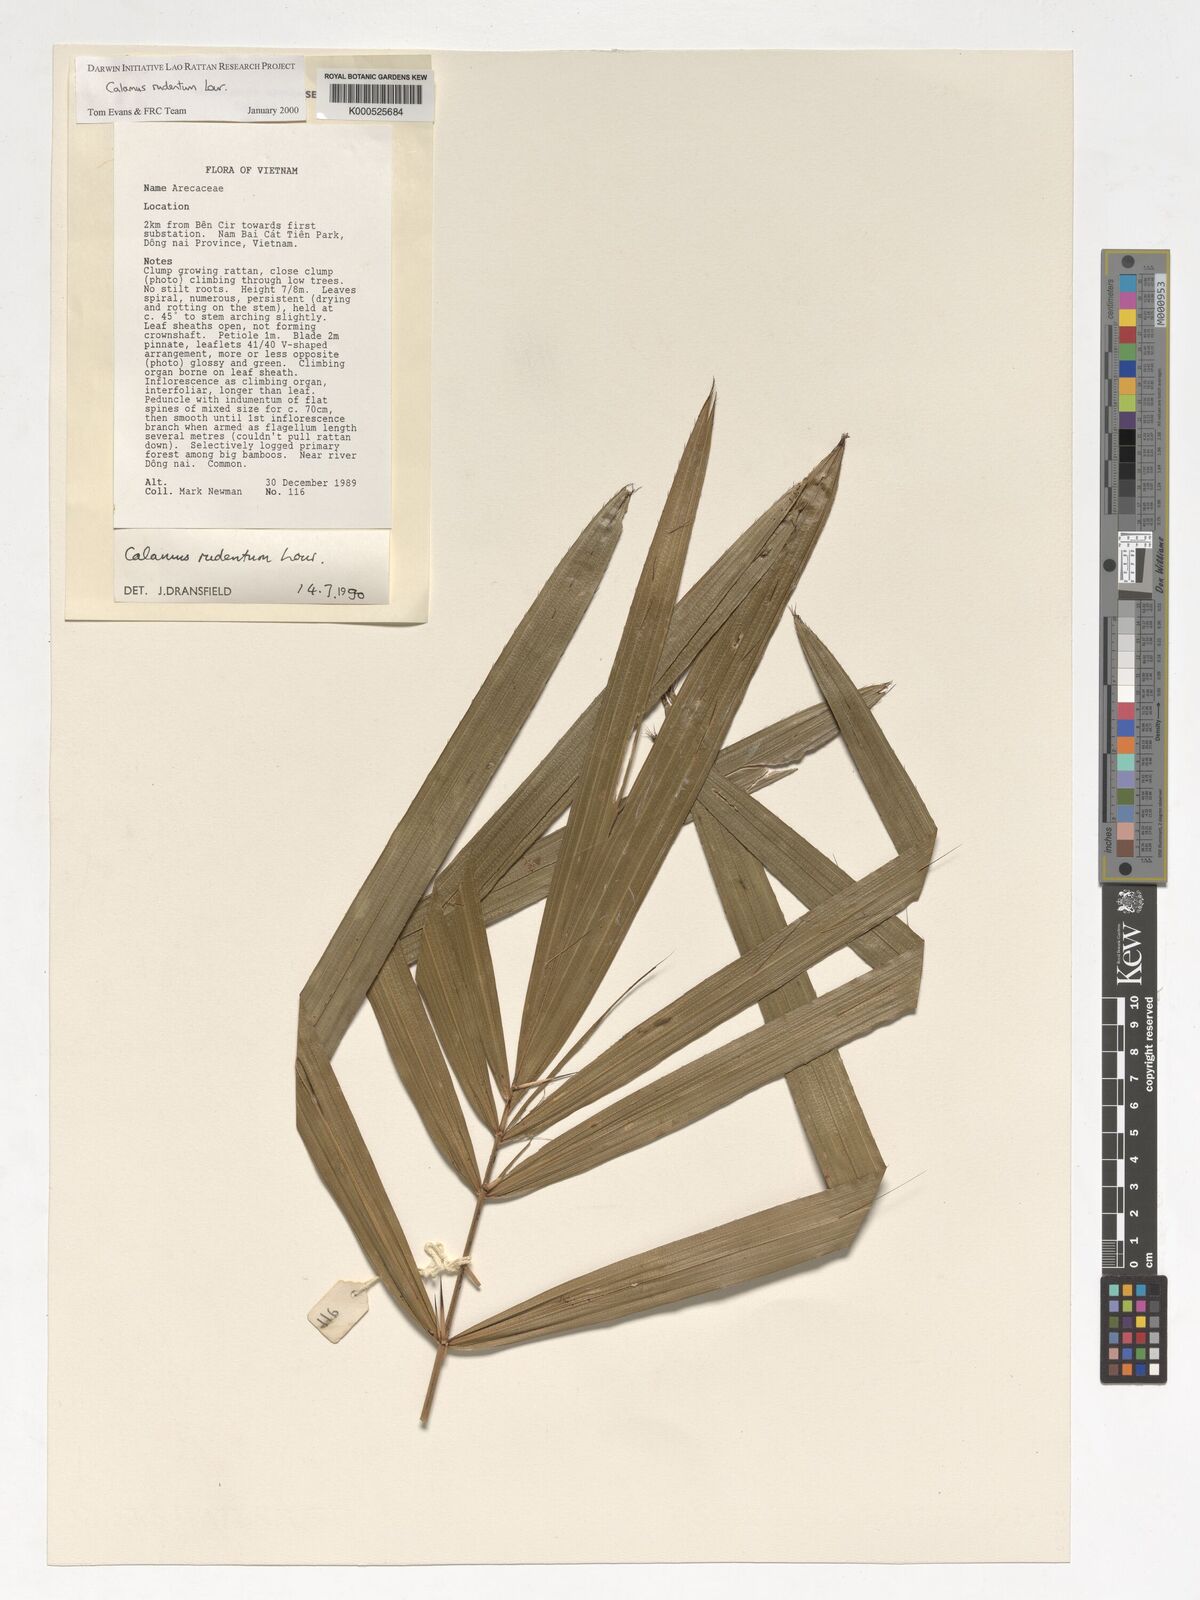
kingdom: Plantae
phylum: Tracheophyta
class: Liliopsida
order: Arecales
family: Arecaceae
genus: Calamus
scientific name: Calamus rudentum
